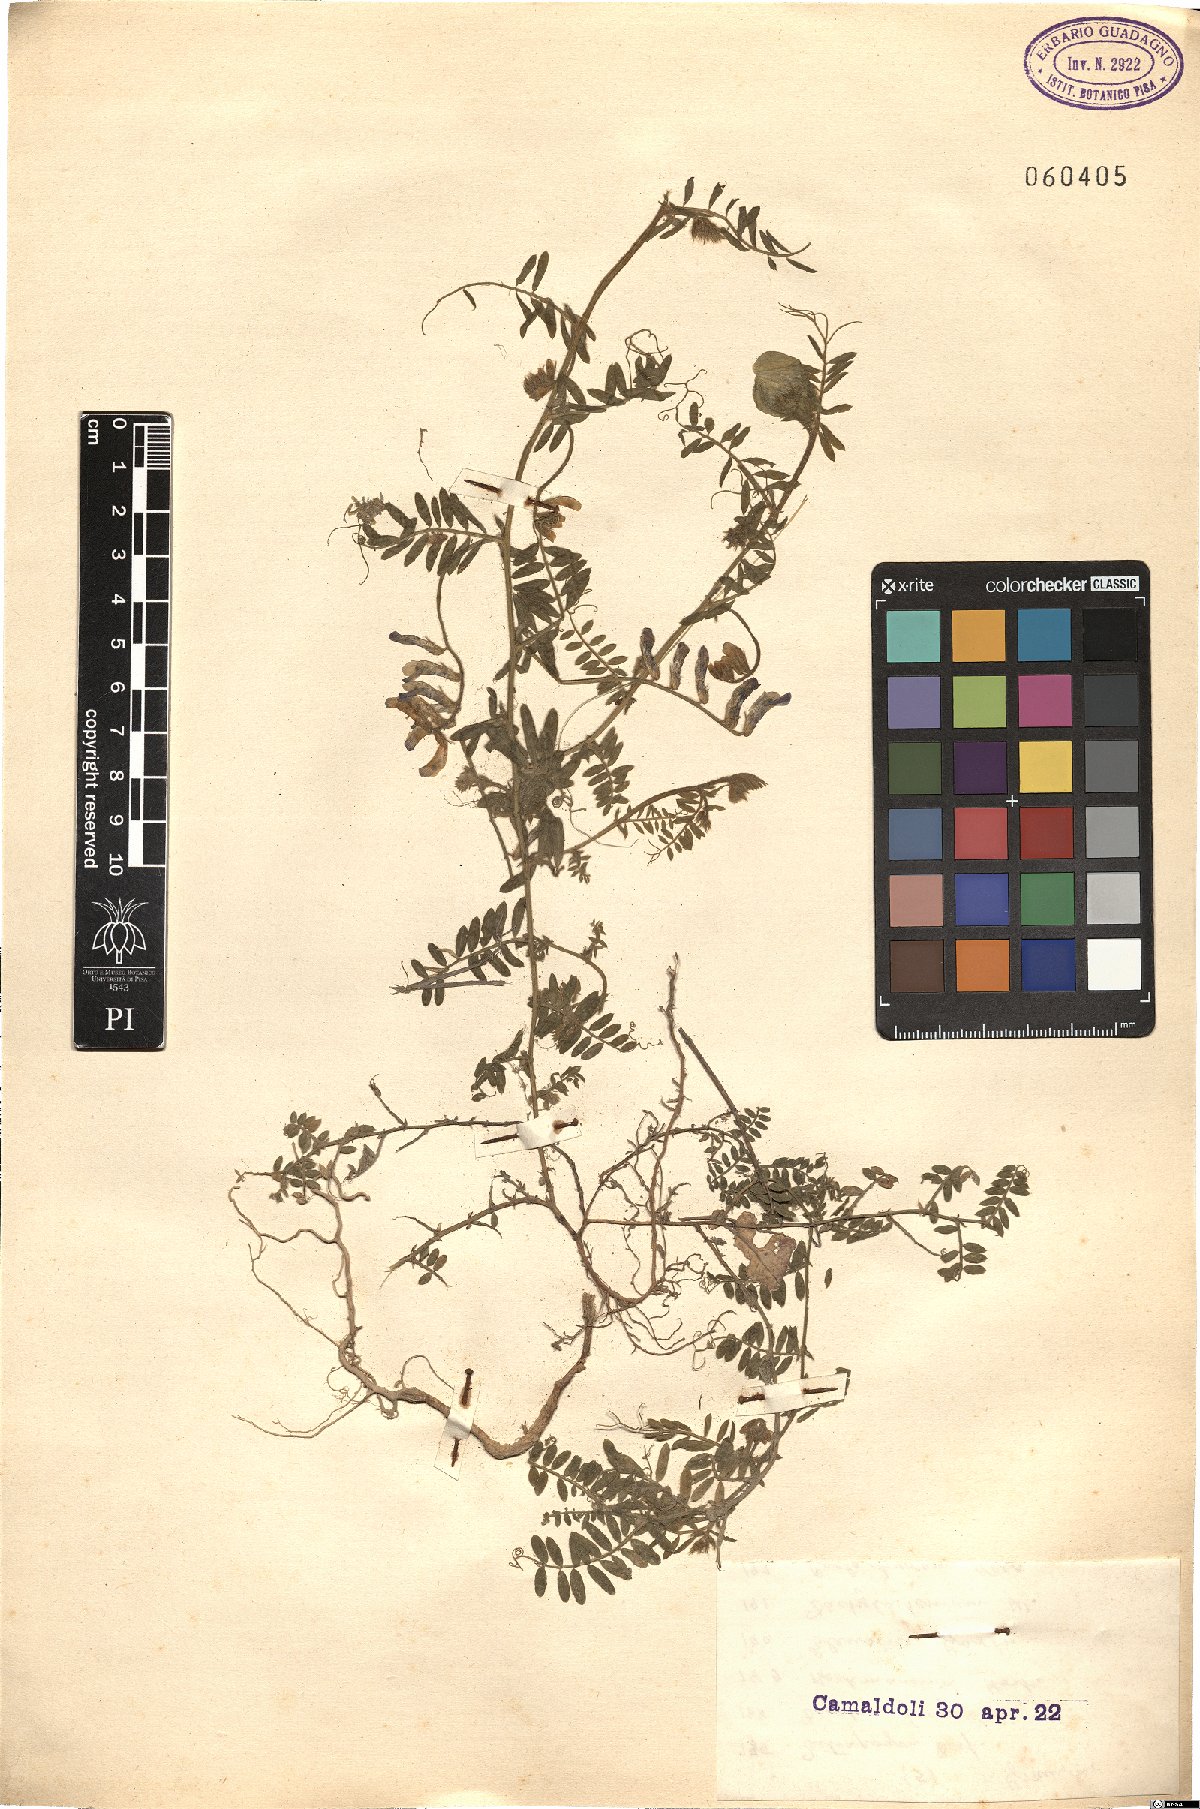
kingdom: Plantae
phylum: Tracheophyta
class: Magnoliopsida
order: Fabales
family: Fabaceae
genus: Vicia
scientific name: Vicia
